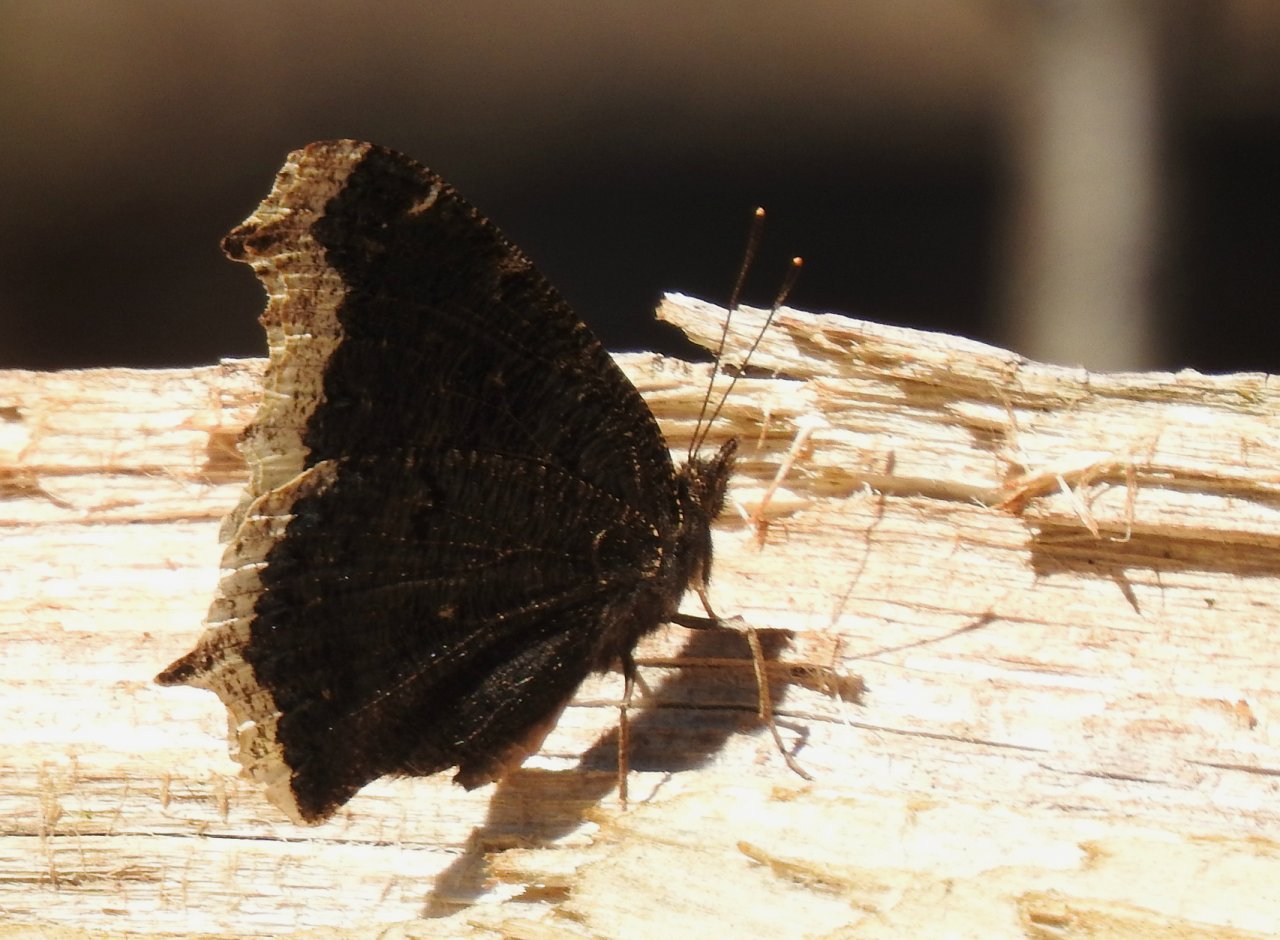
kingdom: Animalia
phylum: Arthropoda
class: Insecta
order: Lepidoptera
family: Nymphalidae
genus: Nymphalis
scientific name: Nymphalis antiopa
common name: Mourning Cloak
